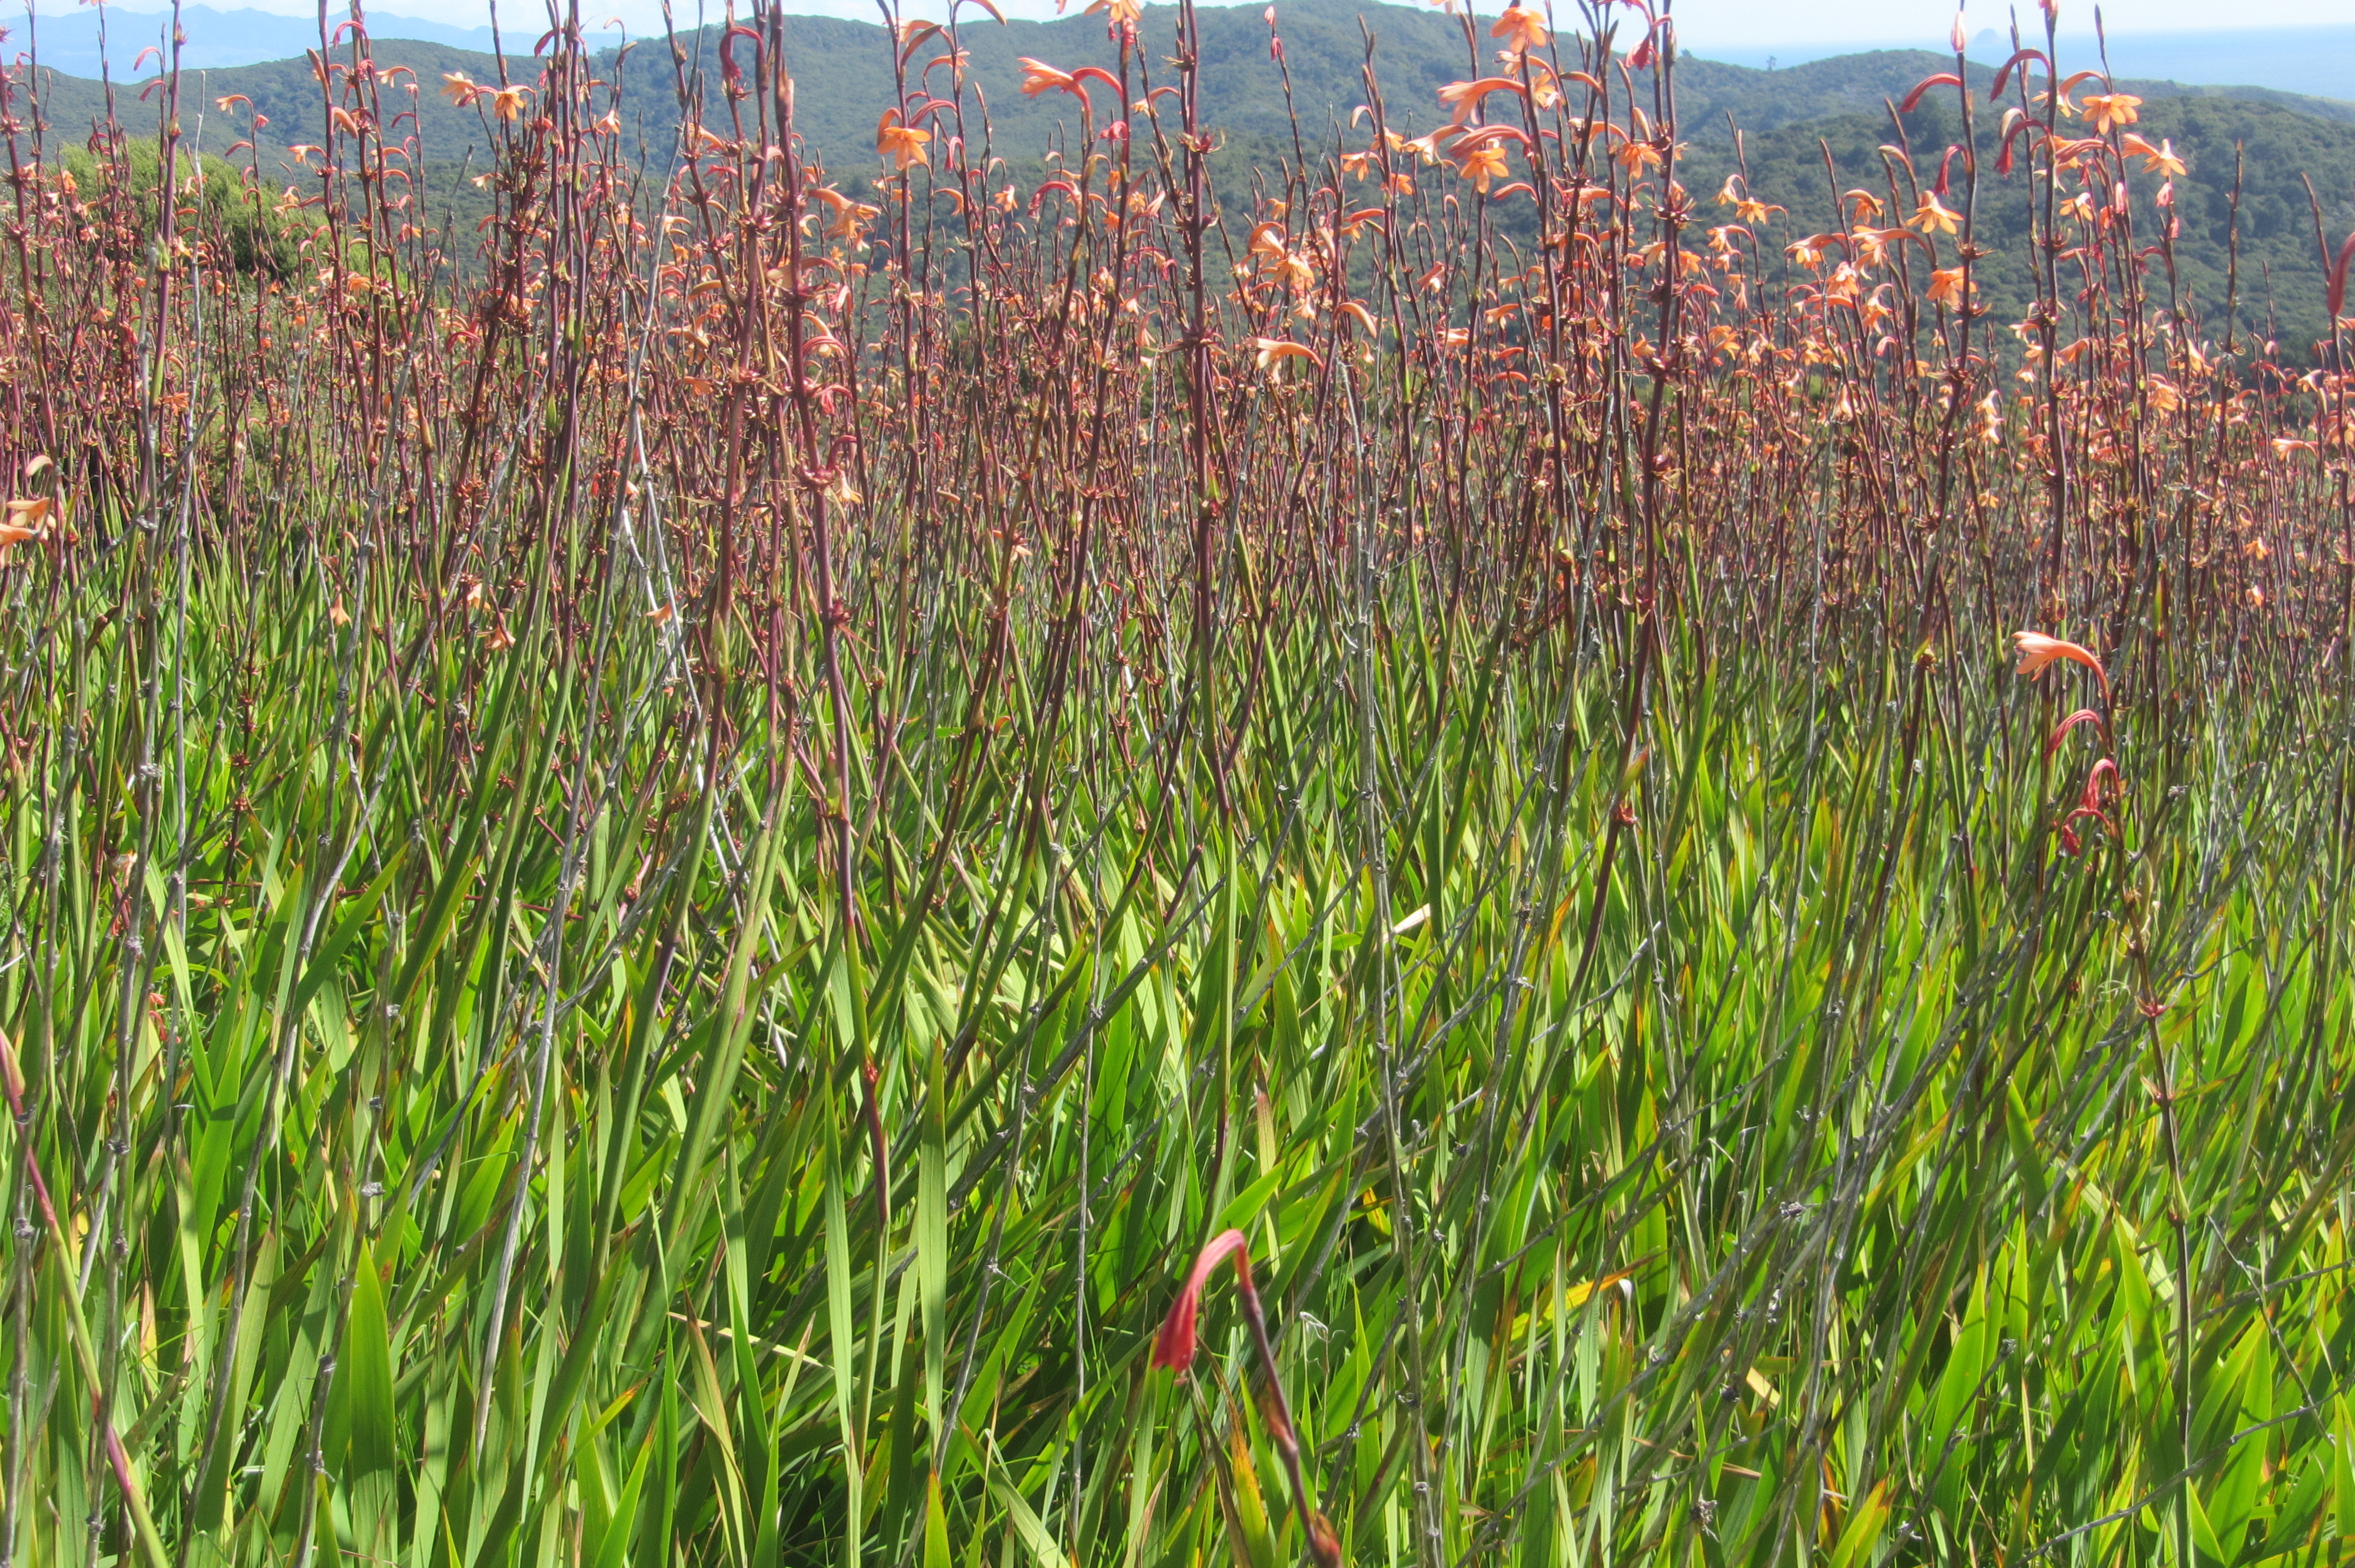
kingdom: Plantae
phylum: Tracheophyta
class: Liliopsida
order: Asparagales
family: Iridaceae
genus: Watsonia
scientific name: Watsonia meriana
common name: Bulbil bugle-lily
